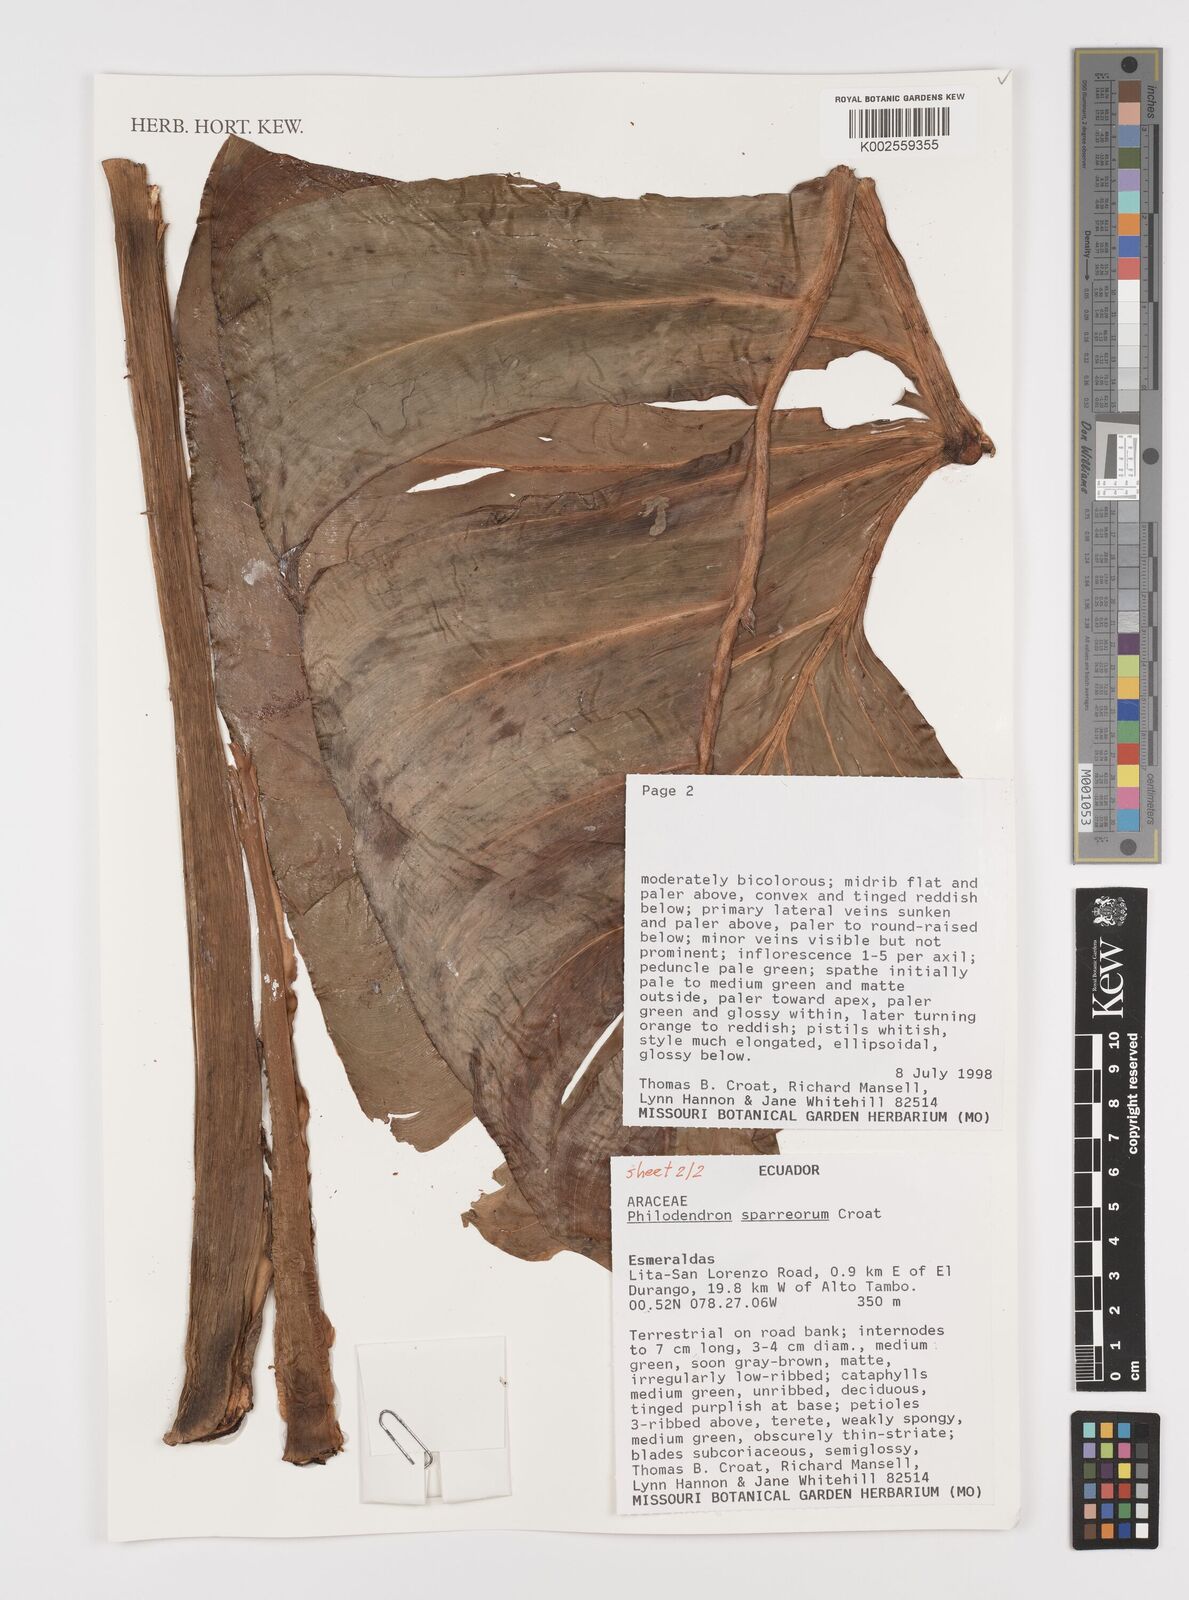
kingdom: Plantae
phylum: Tracheophyta
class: Liliopsida
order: Alismatales
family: Araceae
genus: Philodendron
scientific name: Philodendron sparreorum
